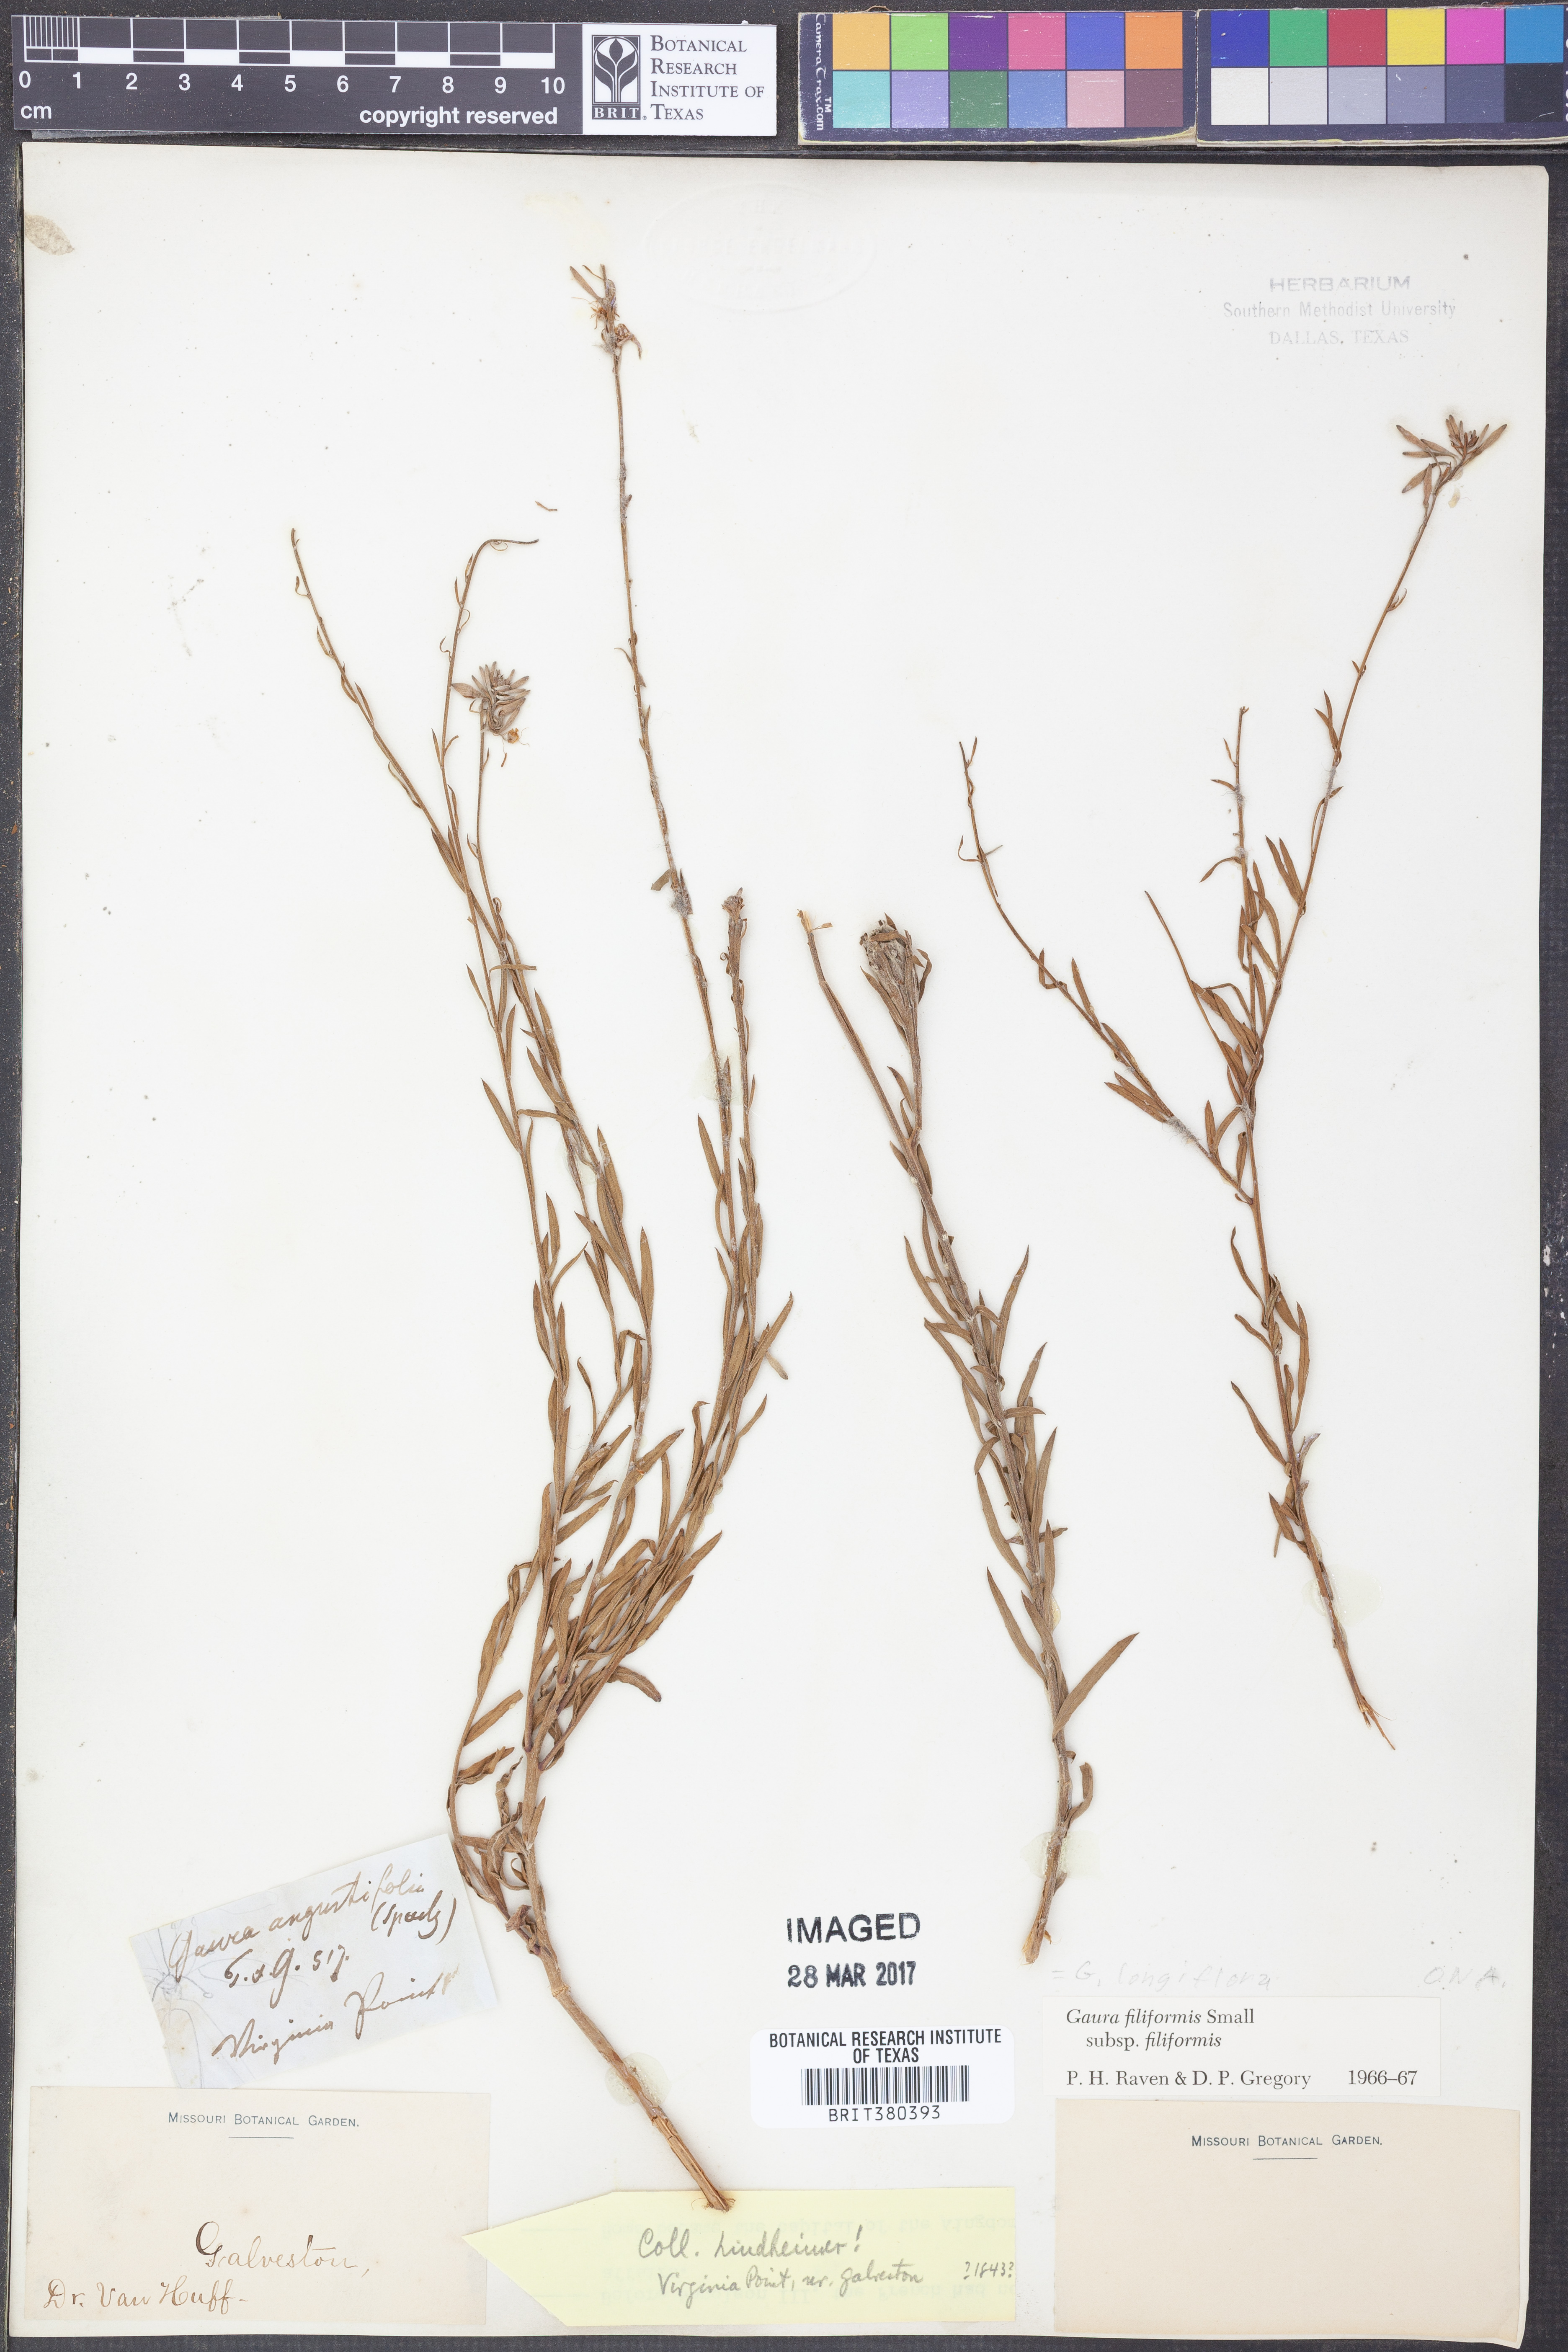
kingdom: Plantae
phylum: Tracheophyta
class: Magnoliopsida
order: Myrtales
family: Onagraceae
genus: Oenothera
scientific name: Oenothera filiformis
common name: Longflower beeblossom
